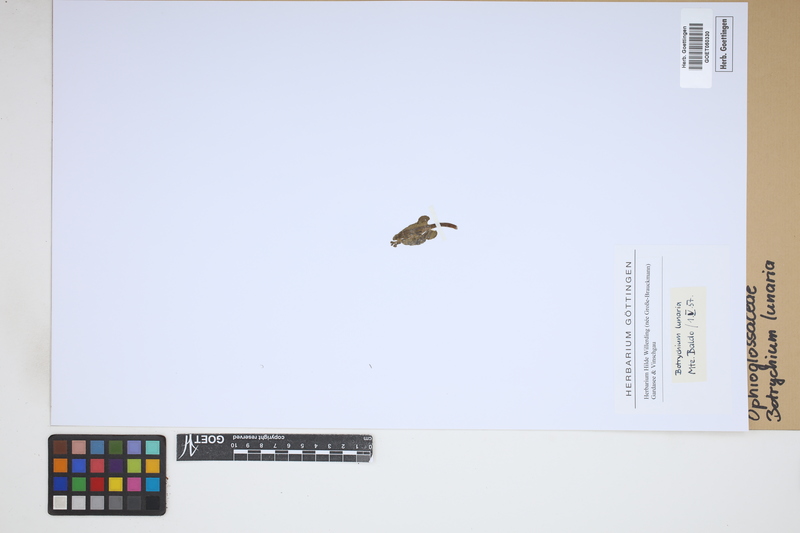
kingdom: Plantae
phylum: Tracheophyta
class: Polypodiopsida
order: Ophioglossales
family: Ophioglossaceae
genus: Botrychium
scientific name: Botrychium lunaria
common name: Moonwort
